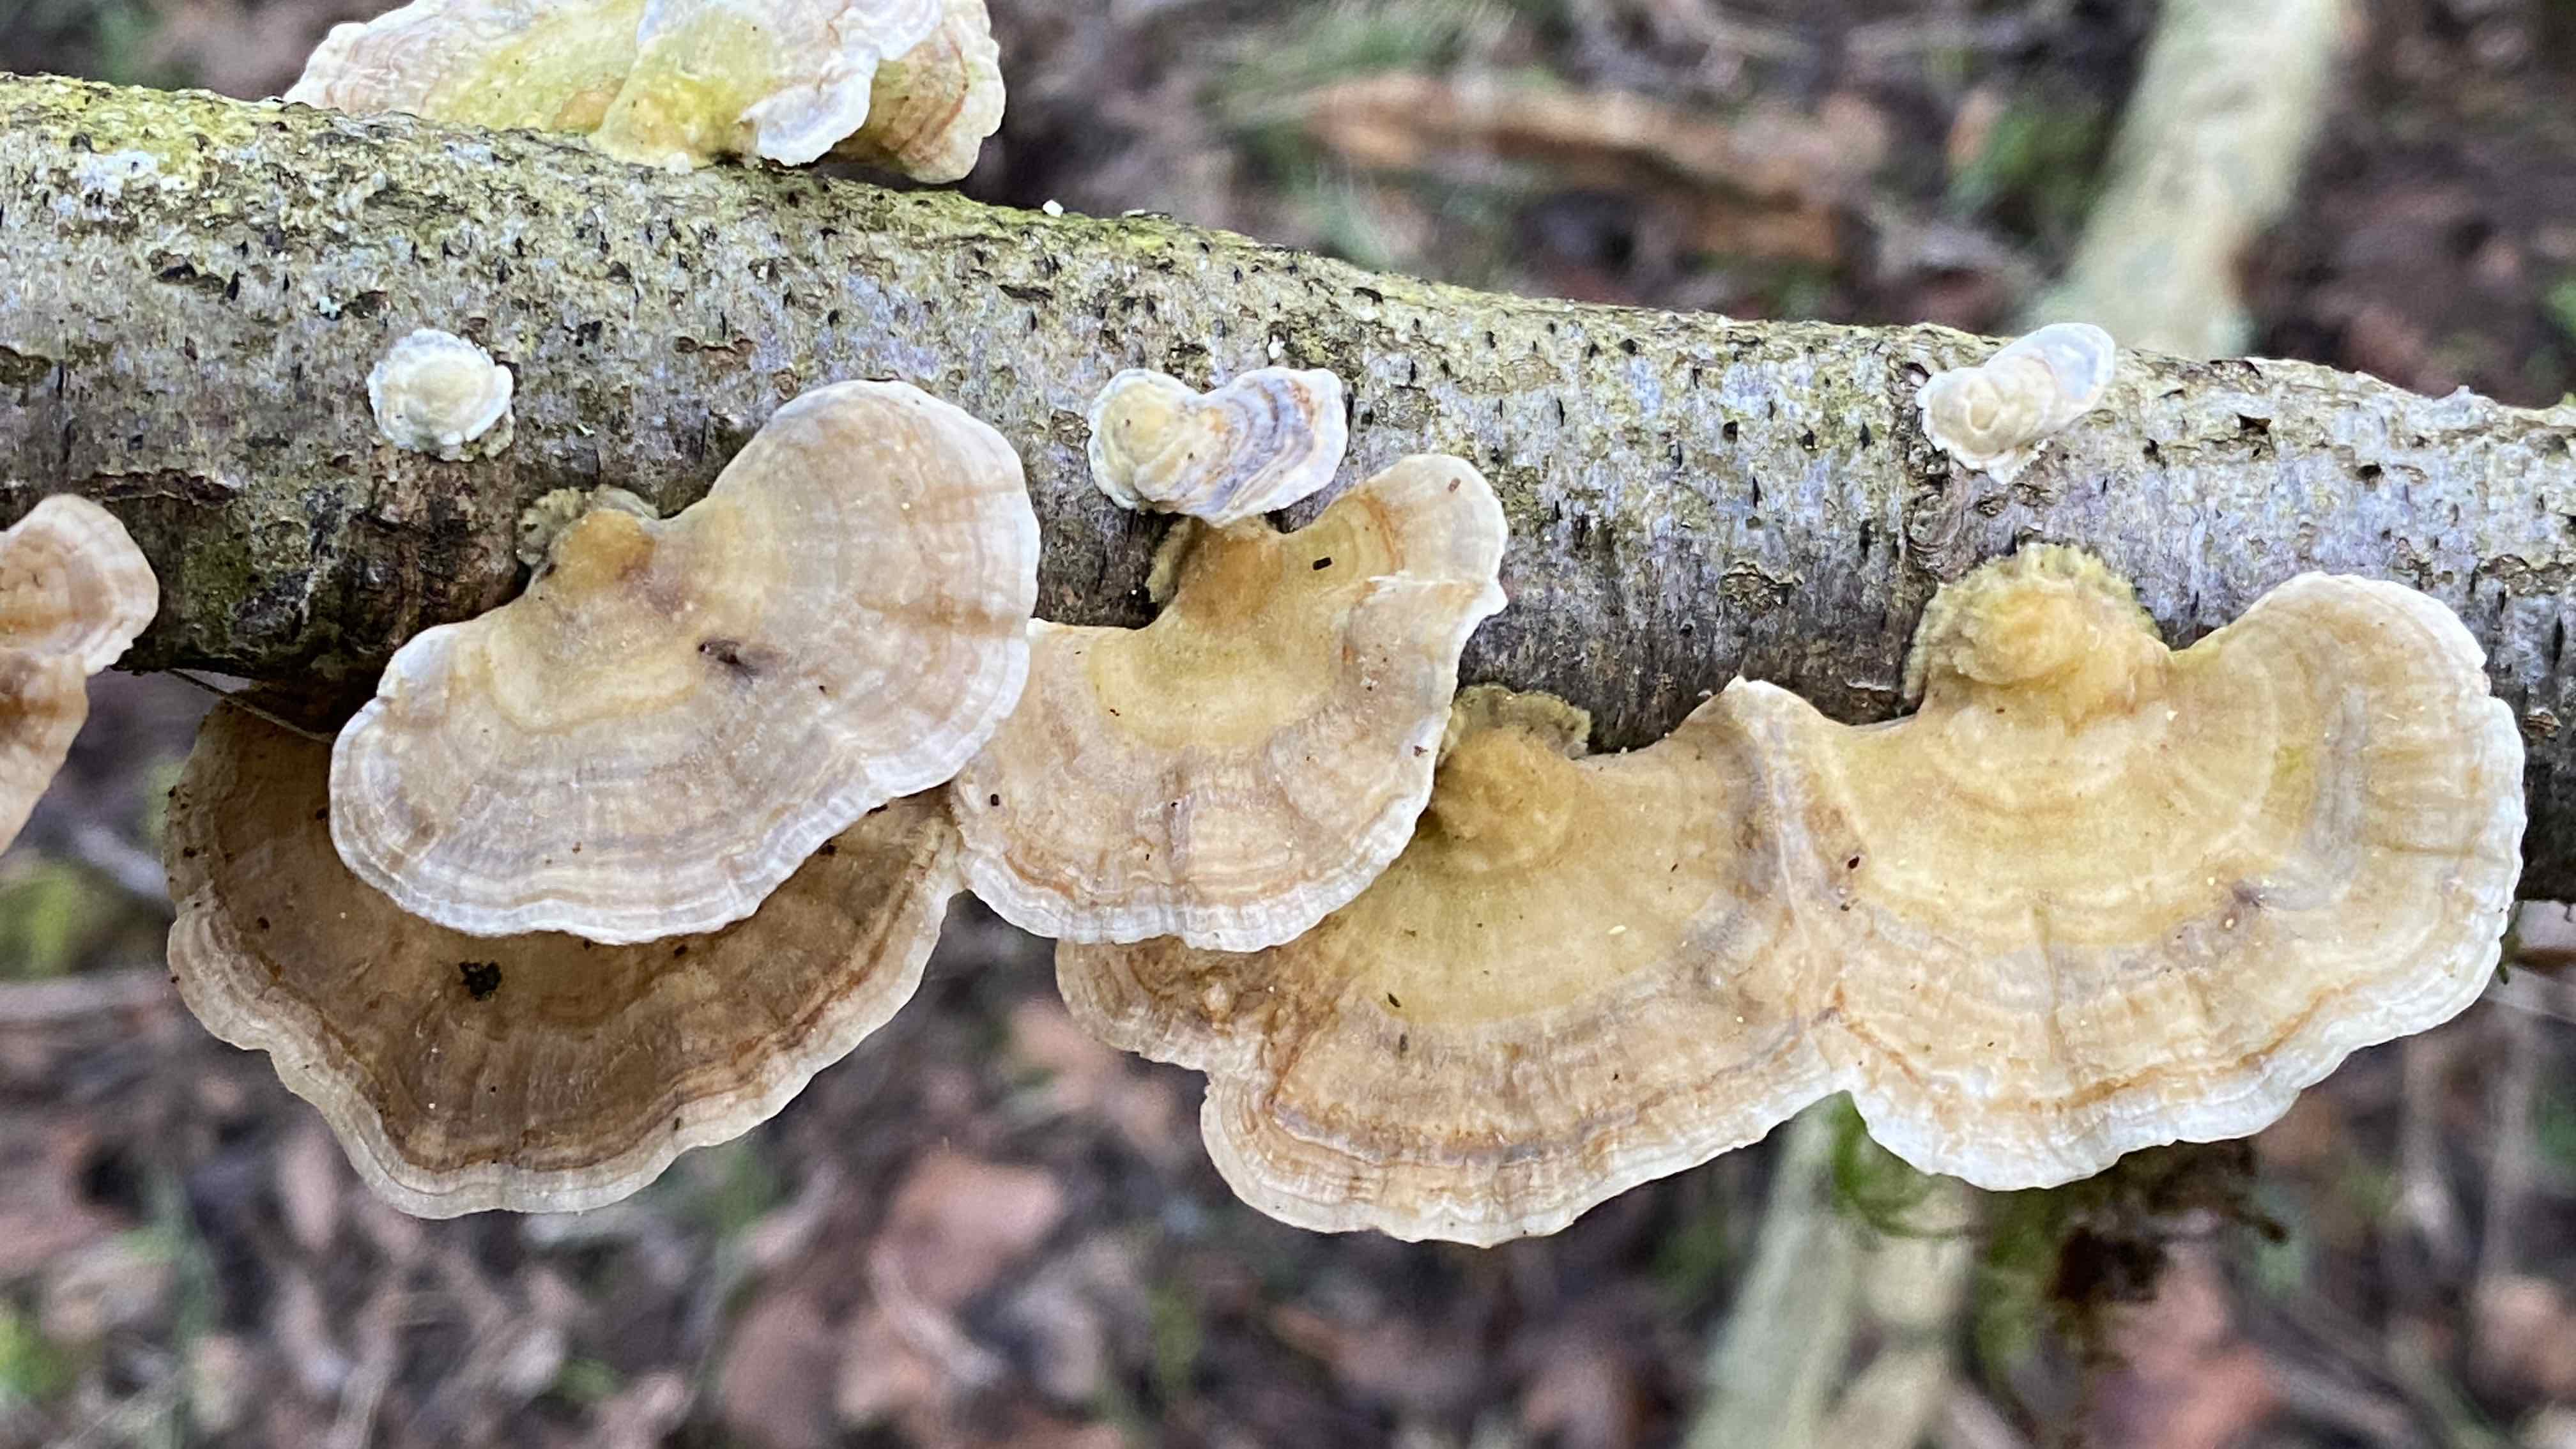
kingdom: Fungi
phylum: Basidiomycota
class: Agaricomycetes
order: Polyporales
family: Polyporaceae
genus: Trametes
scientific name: Trametes ochracea
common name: bæltet læderporesvamp
